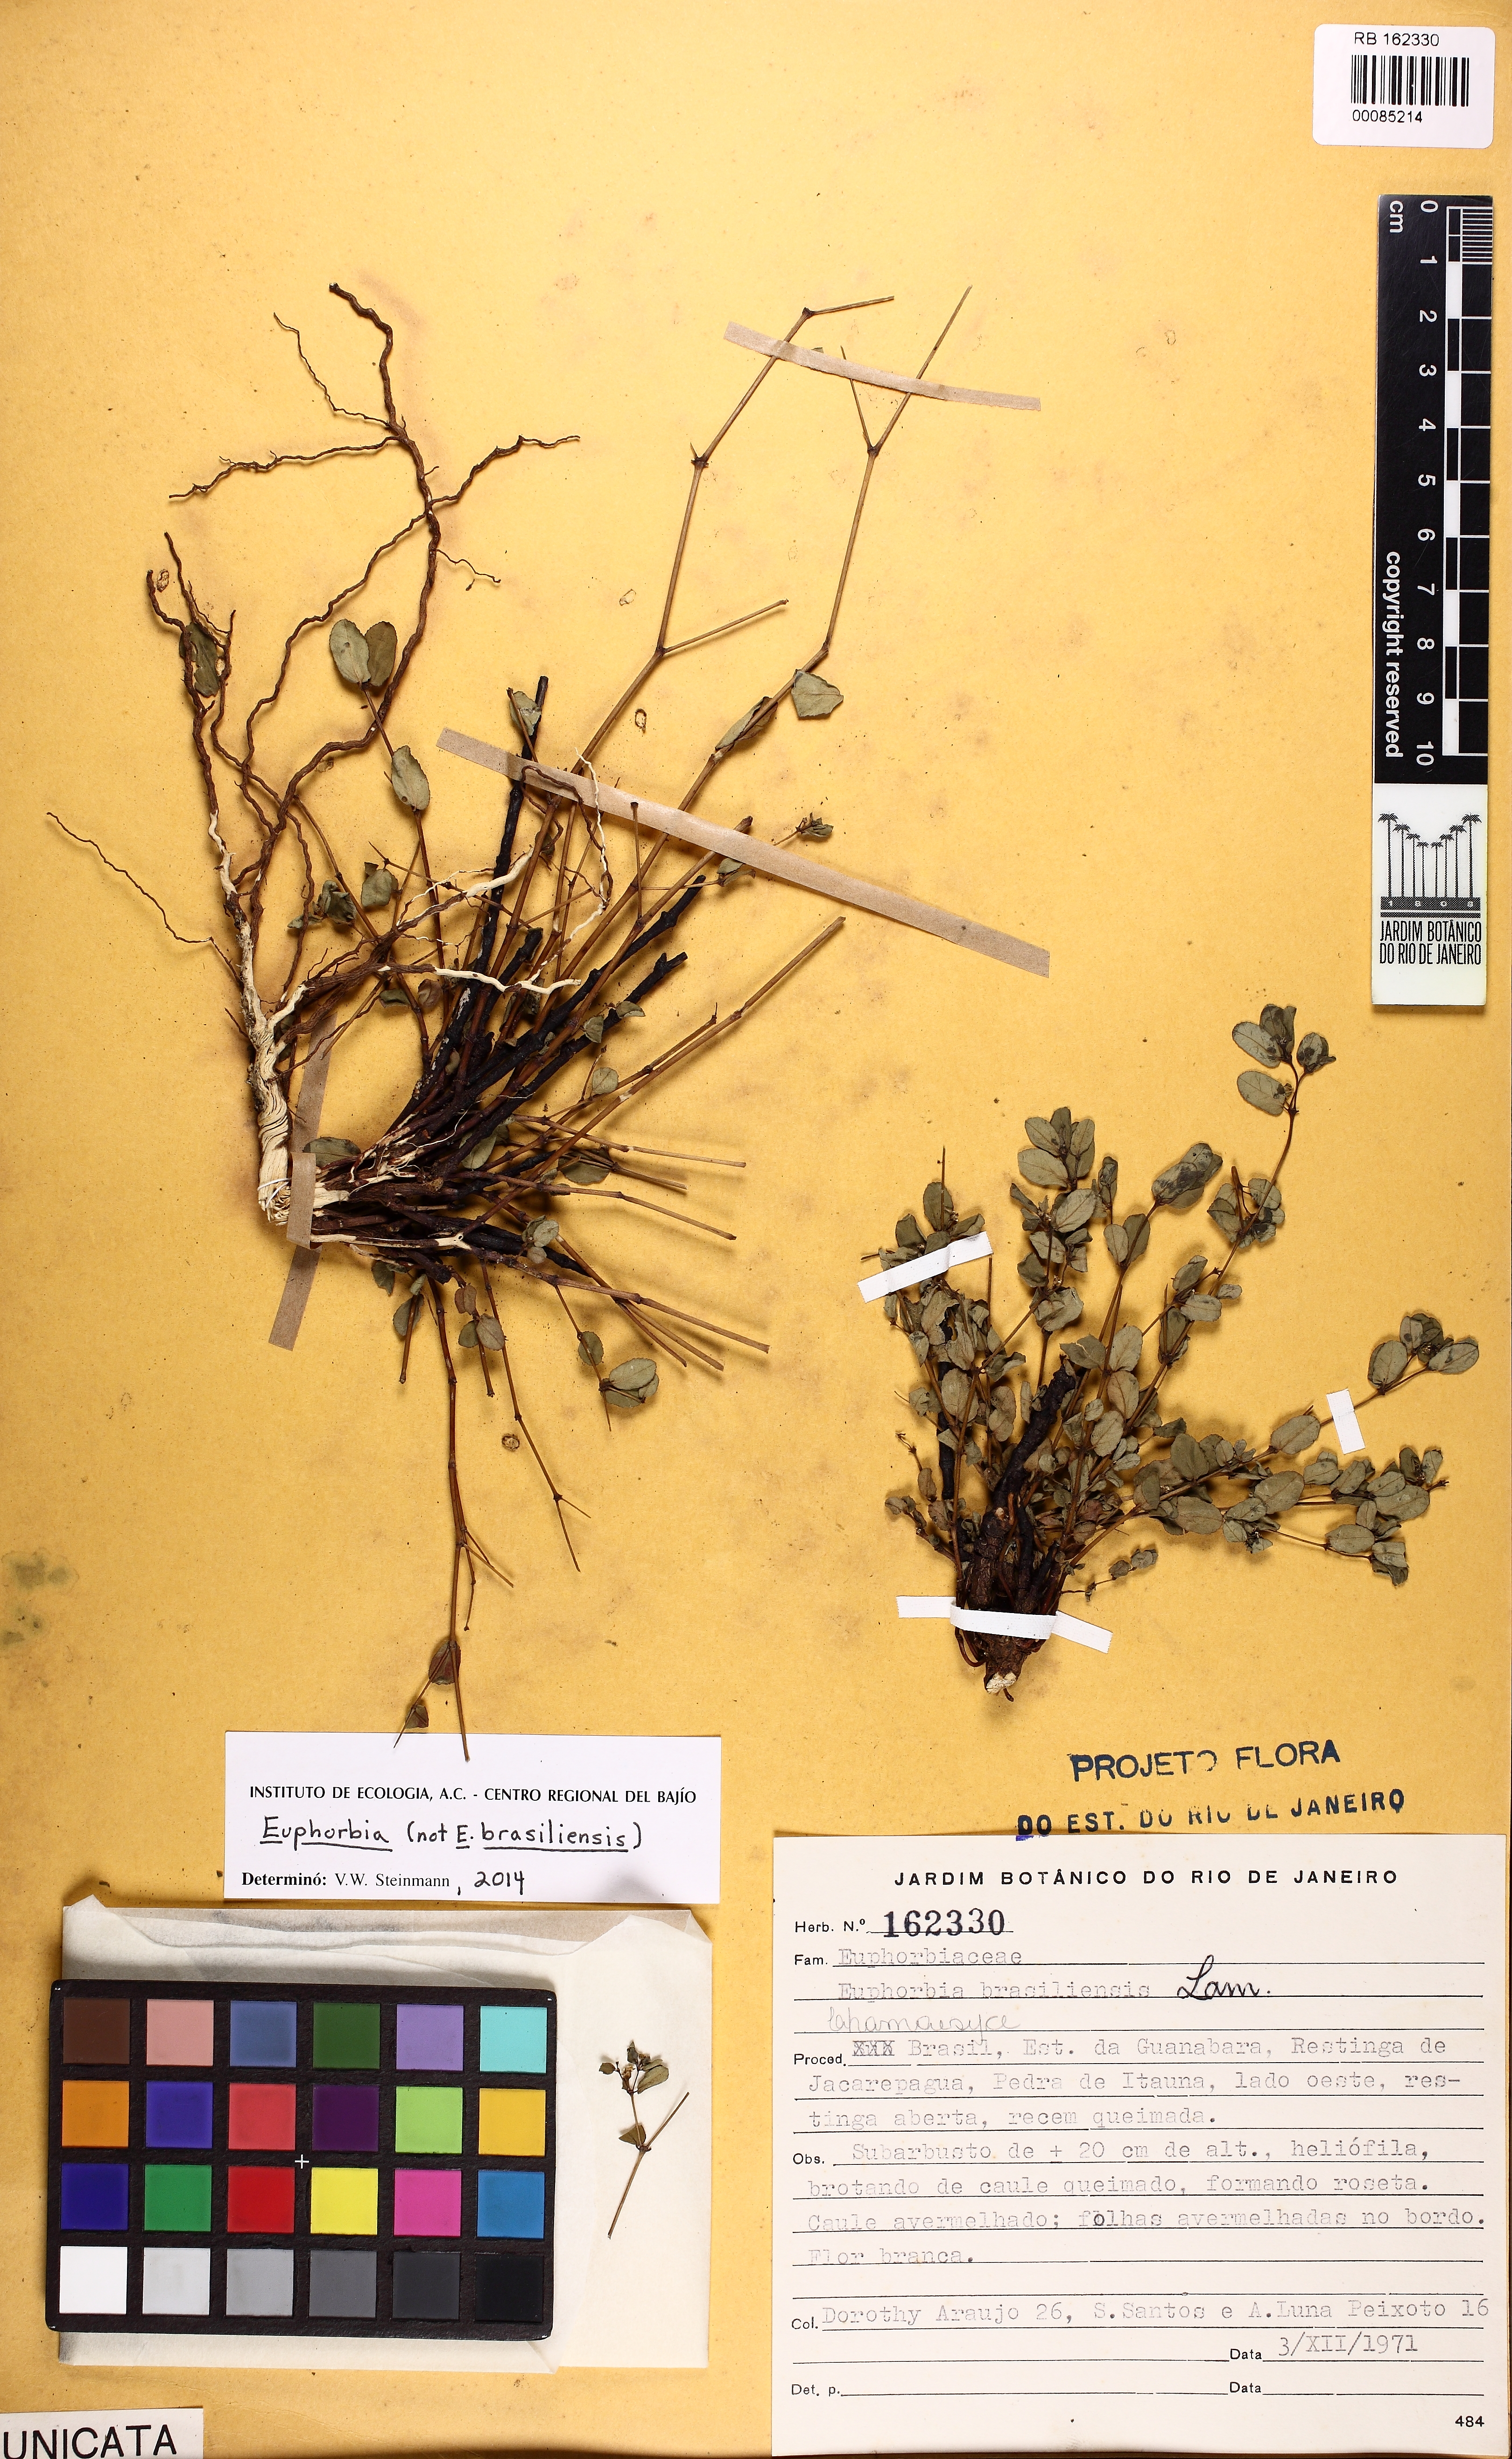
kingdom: Plantae
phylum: Tracheophyta
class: Magnoliopsida
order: Malpighiales
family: Euphorbiaceae
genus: Euphorbia
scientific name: Euphorbia bahiensis
